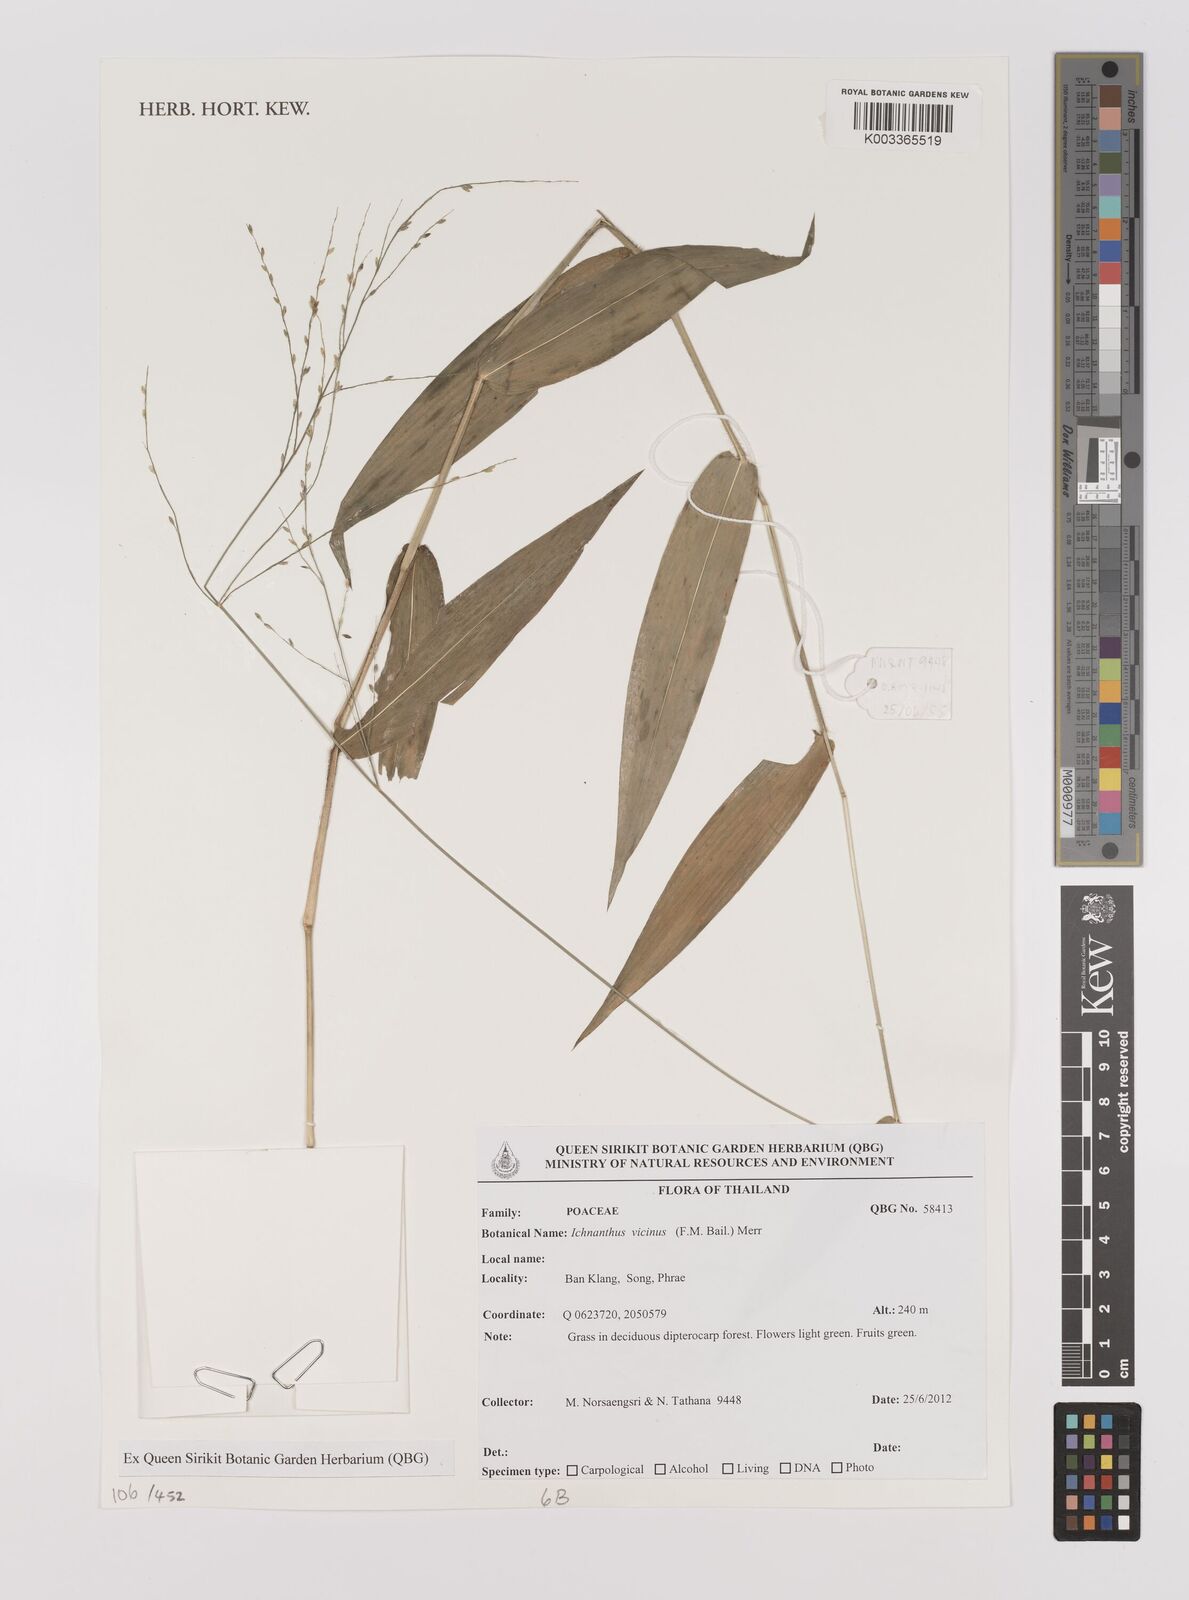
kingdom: Plantae
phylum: Tracheophyta
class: Liliopsida
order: Poales
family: Poaceae
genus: Ichnanthus
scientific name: Ichnanthus pallens
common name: Water grass
